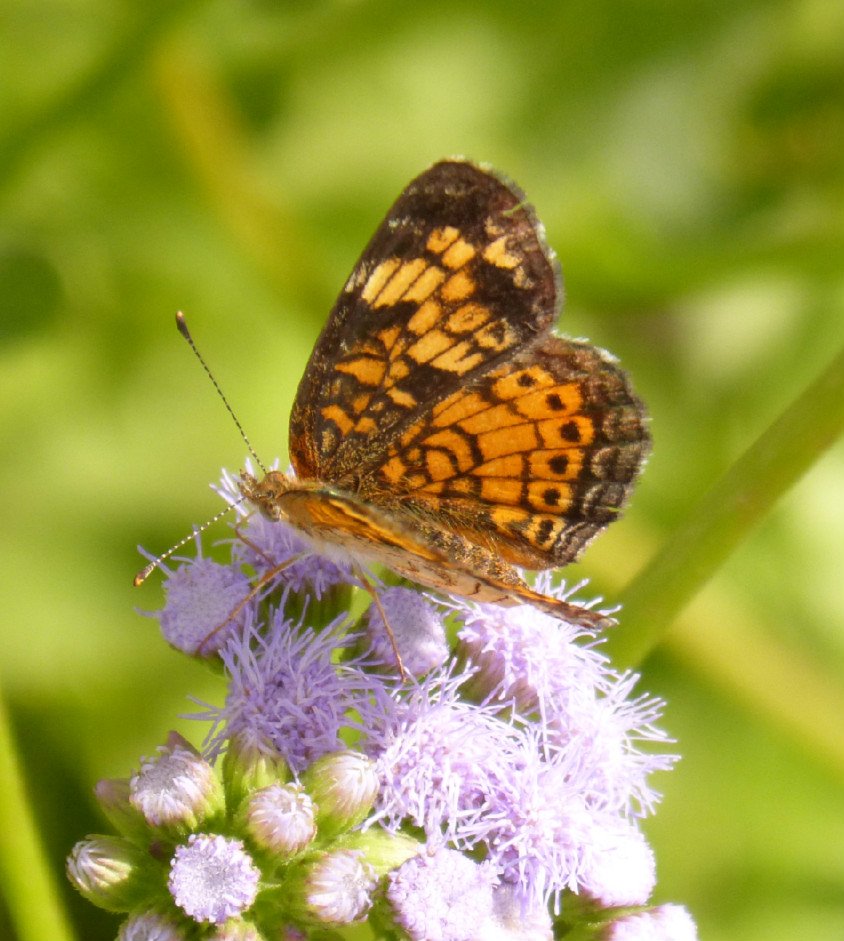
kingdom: Animalia
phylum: Arthropoda
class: Insecta
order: Lepidoptera
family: Nymphalidae
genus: Phyciodes
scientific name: Phyciodes tharos
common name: Pearl Crescent
